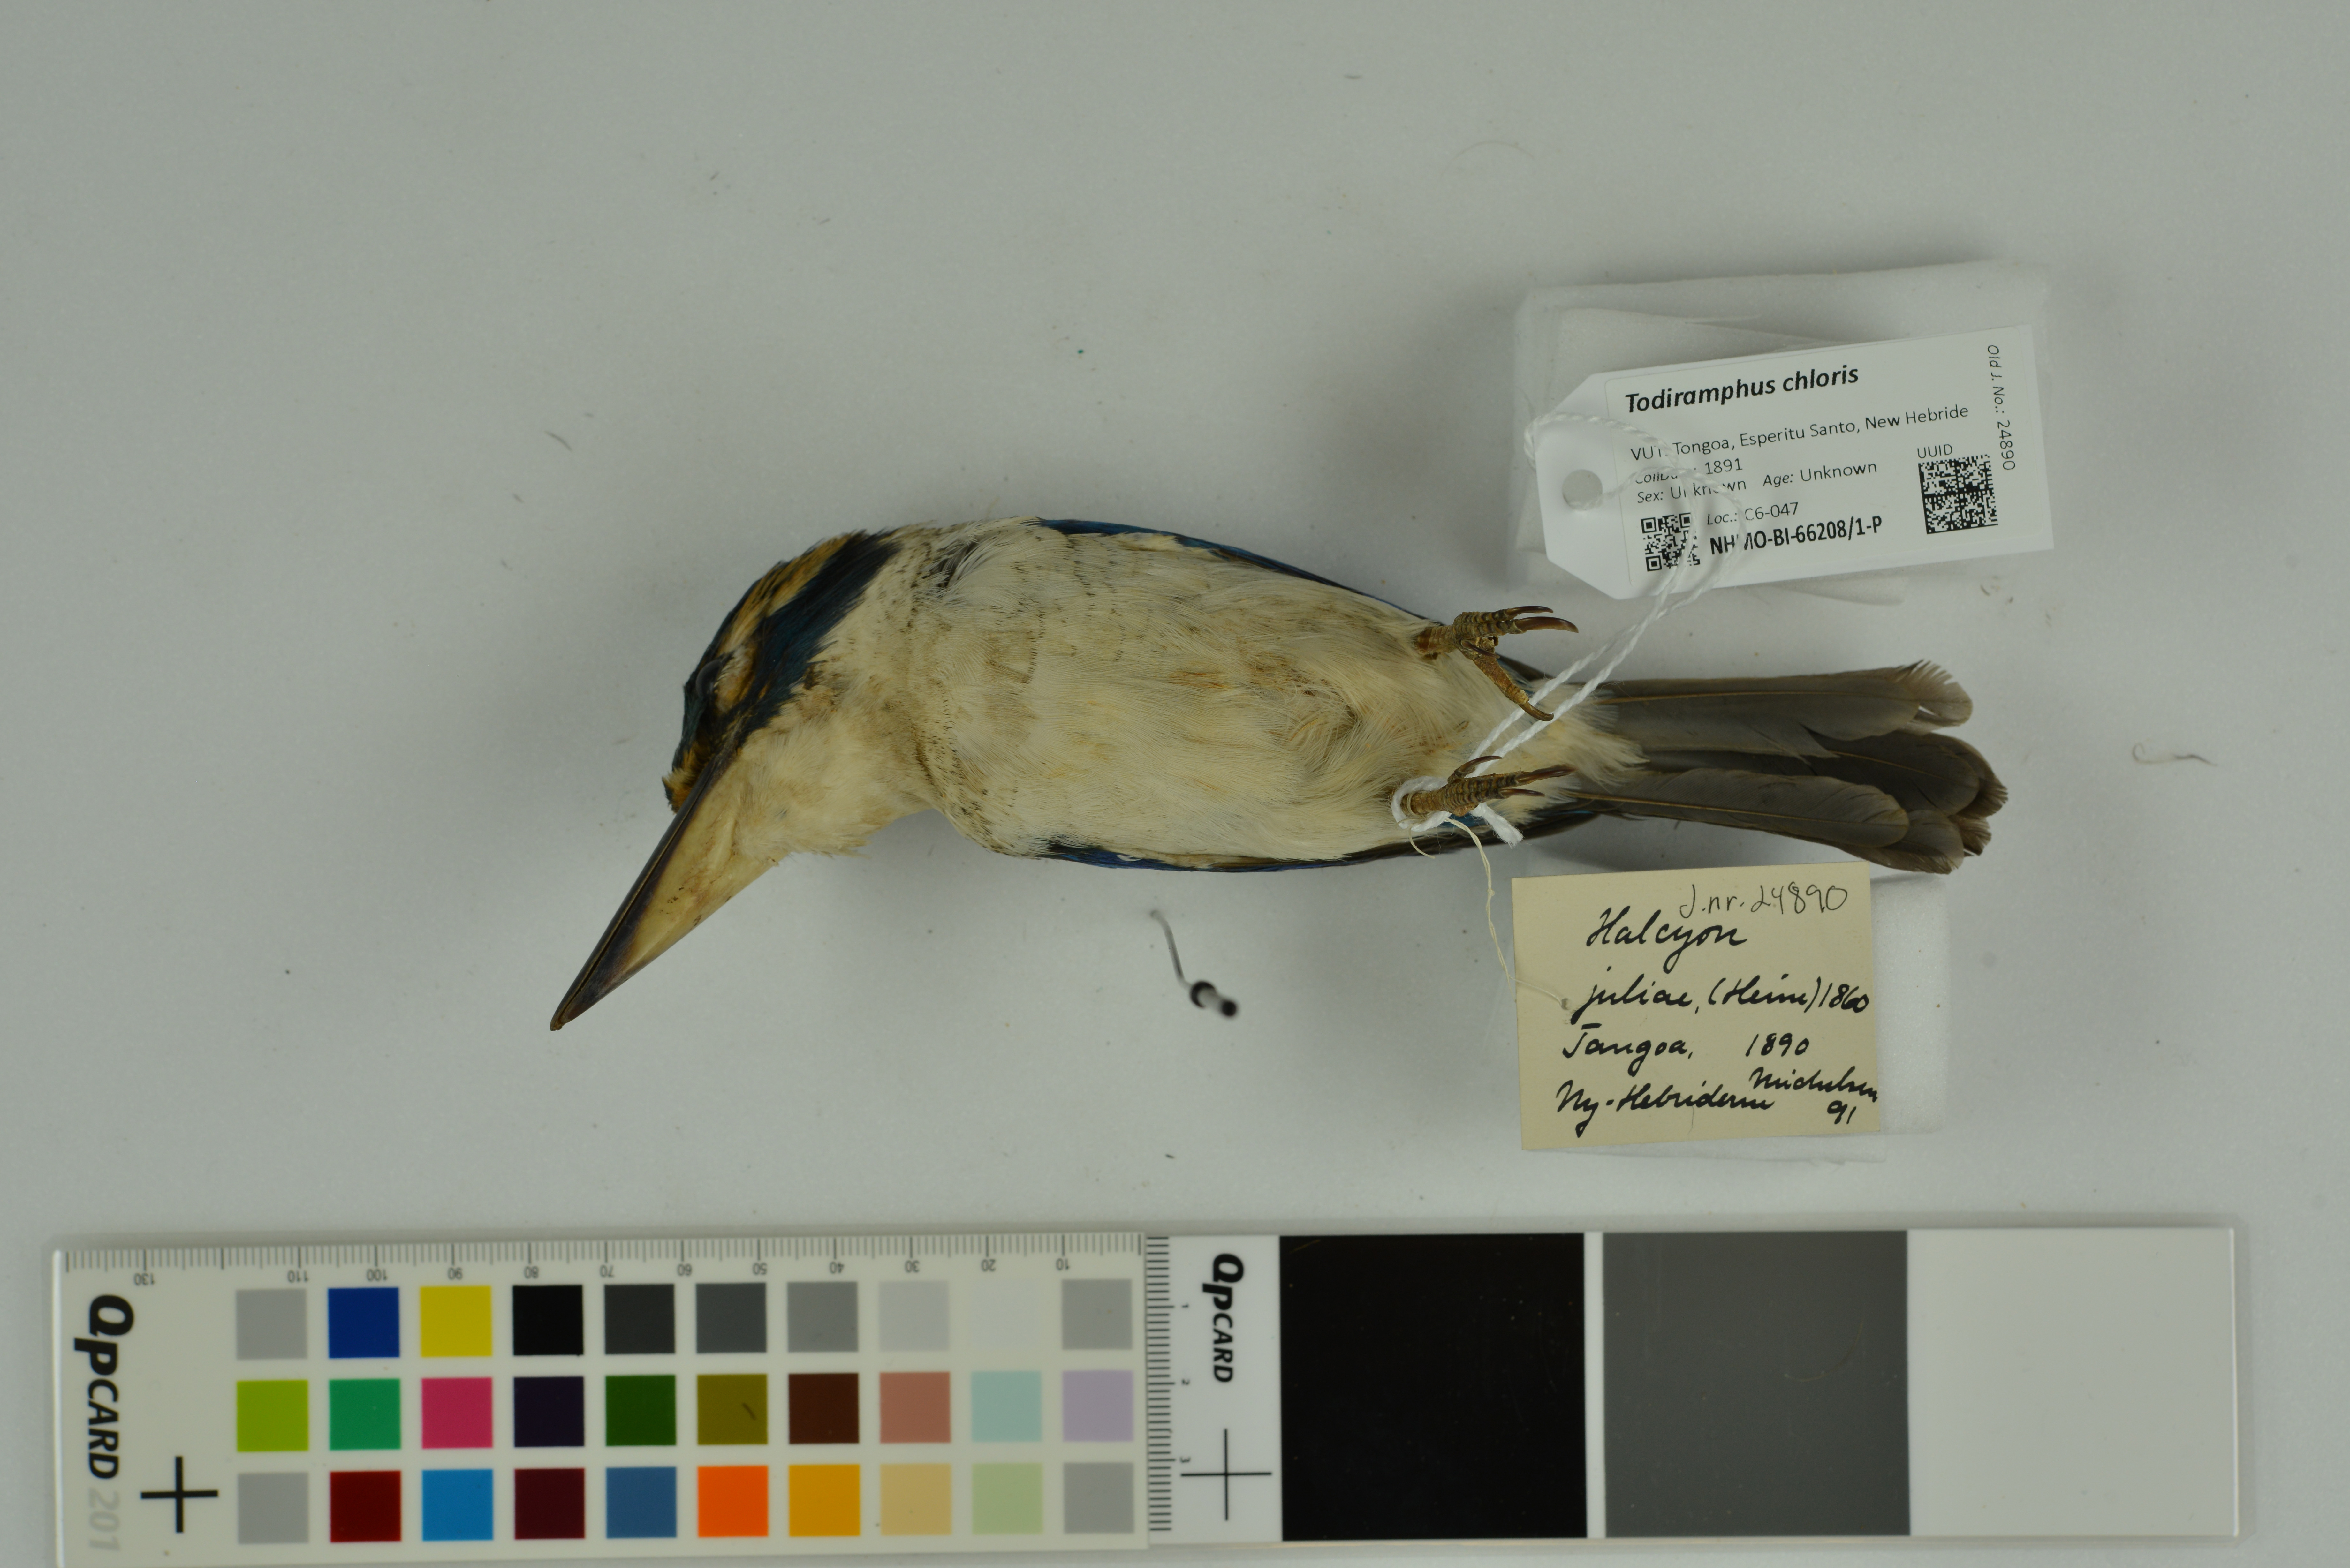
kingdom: Animalia
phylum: Chordata
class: Aves
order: Coraciiformes
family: Alcedinidae
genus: Todiramphus
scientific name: Todiramphus chloris
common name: Collared kingfisher
